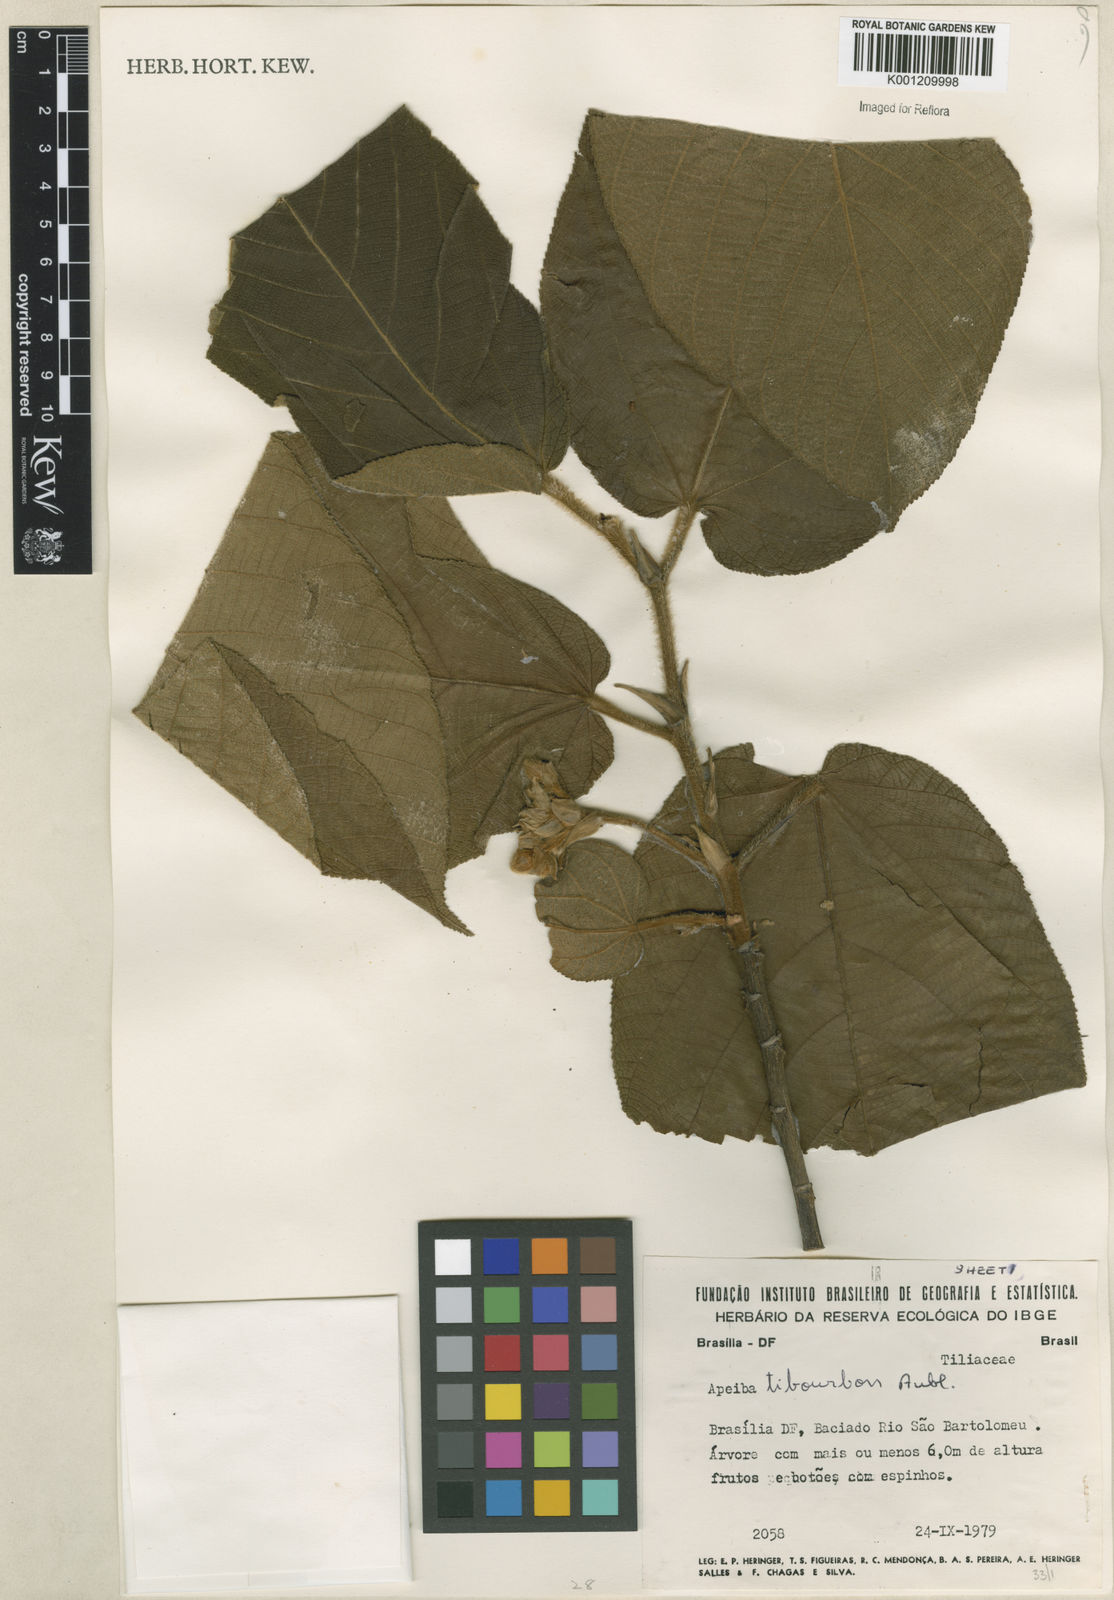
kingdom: Plantae
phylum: Tracheophyta
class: Magnoliopsida
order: Malvales
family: Malvaceae
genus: Apeiba
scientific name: Apeiba tibourbou
